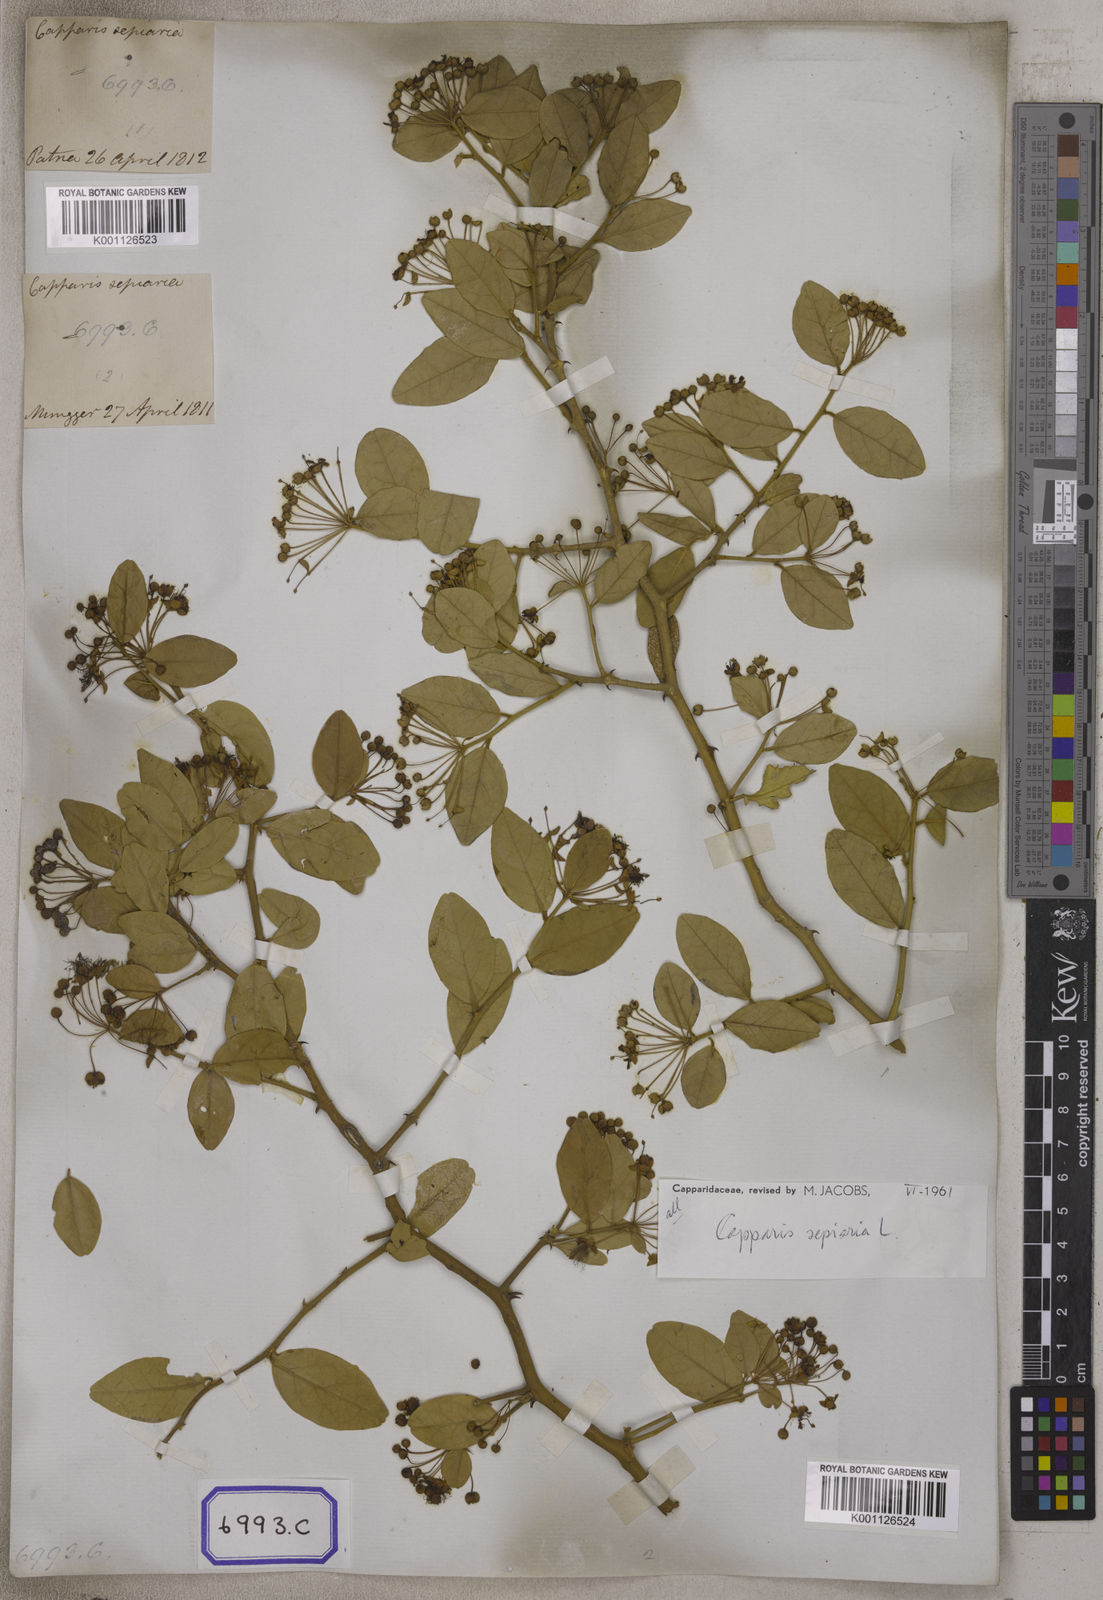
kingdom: Plantae
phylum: Tracheophyta
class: Magnoliopsida
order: Brassicales
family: Capparaceae
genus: Capparis
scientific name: Capparis
